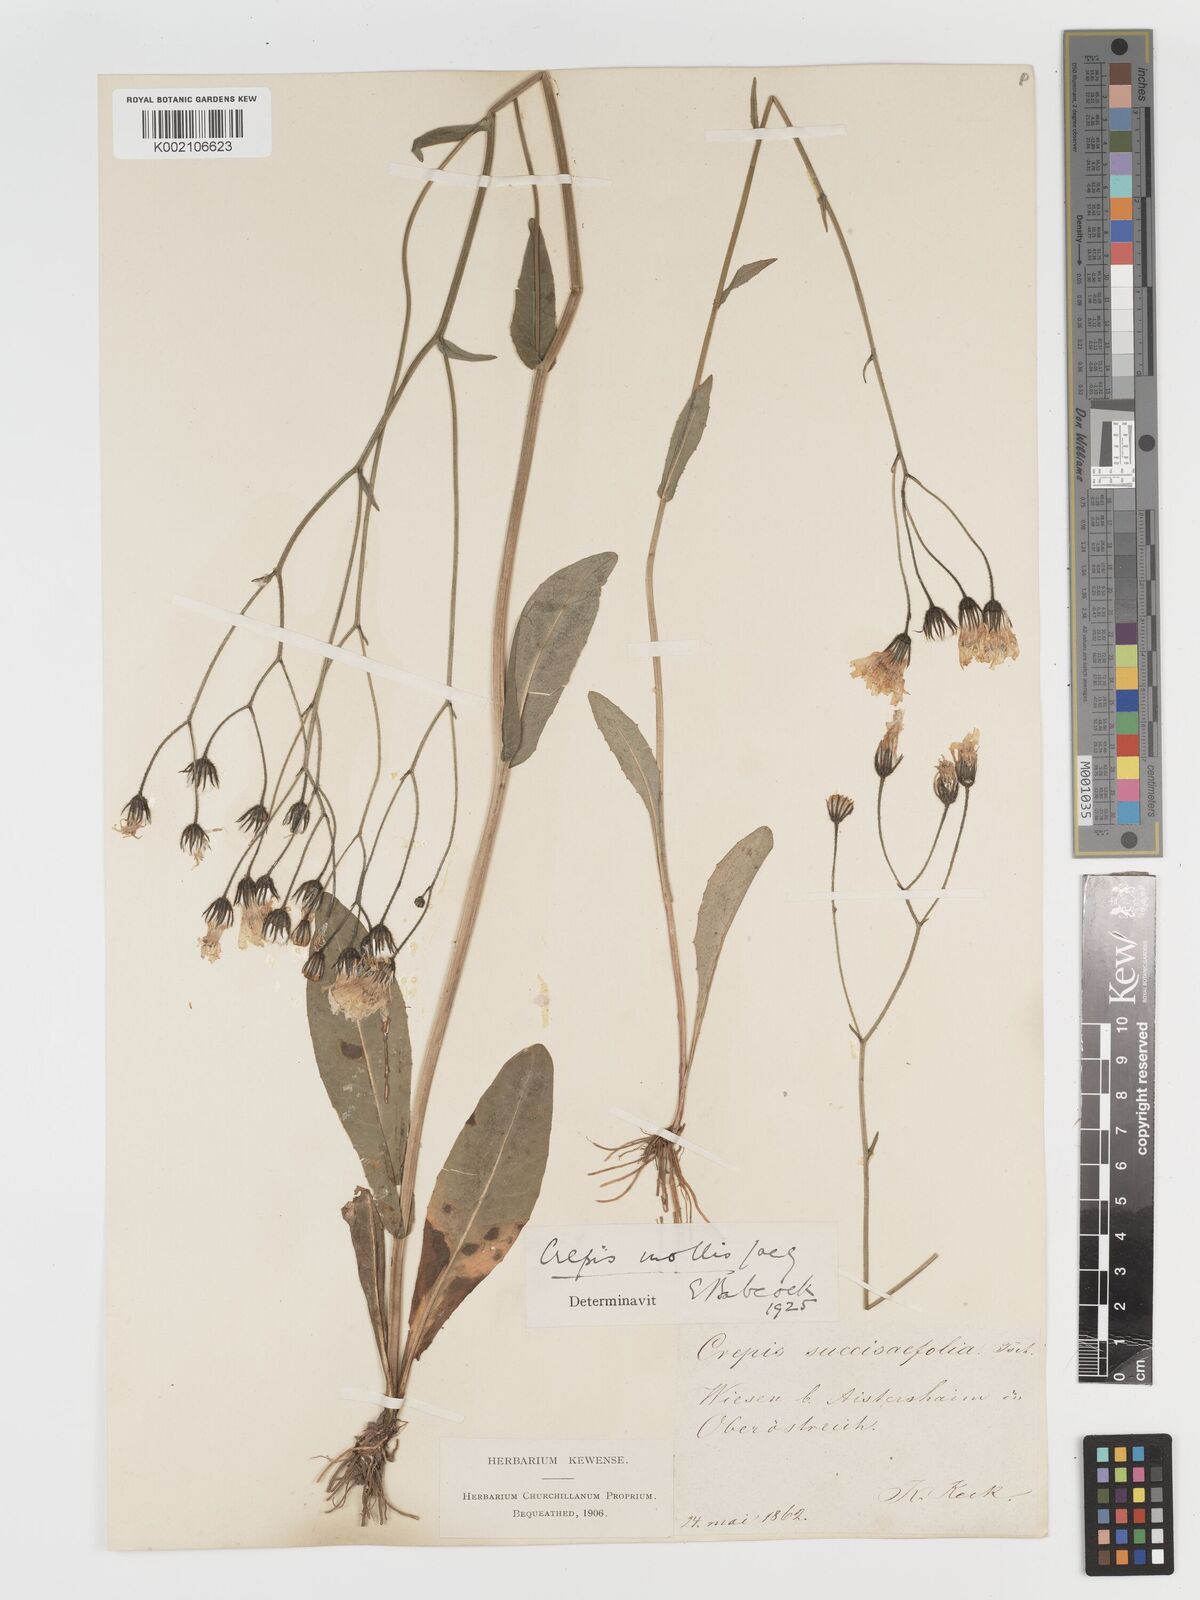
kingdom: Plantae
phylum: Tracheophyta
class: Magnoliopsida
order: Asterales
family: Asteraceae
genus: Crepis
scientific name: Crepis mollis
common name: Northern hawk's-beard
